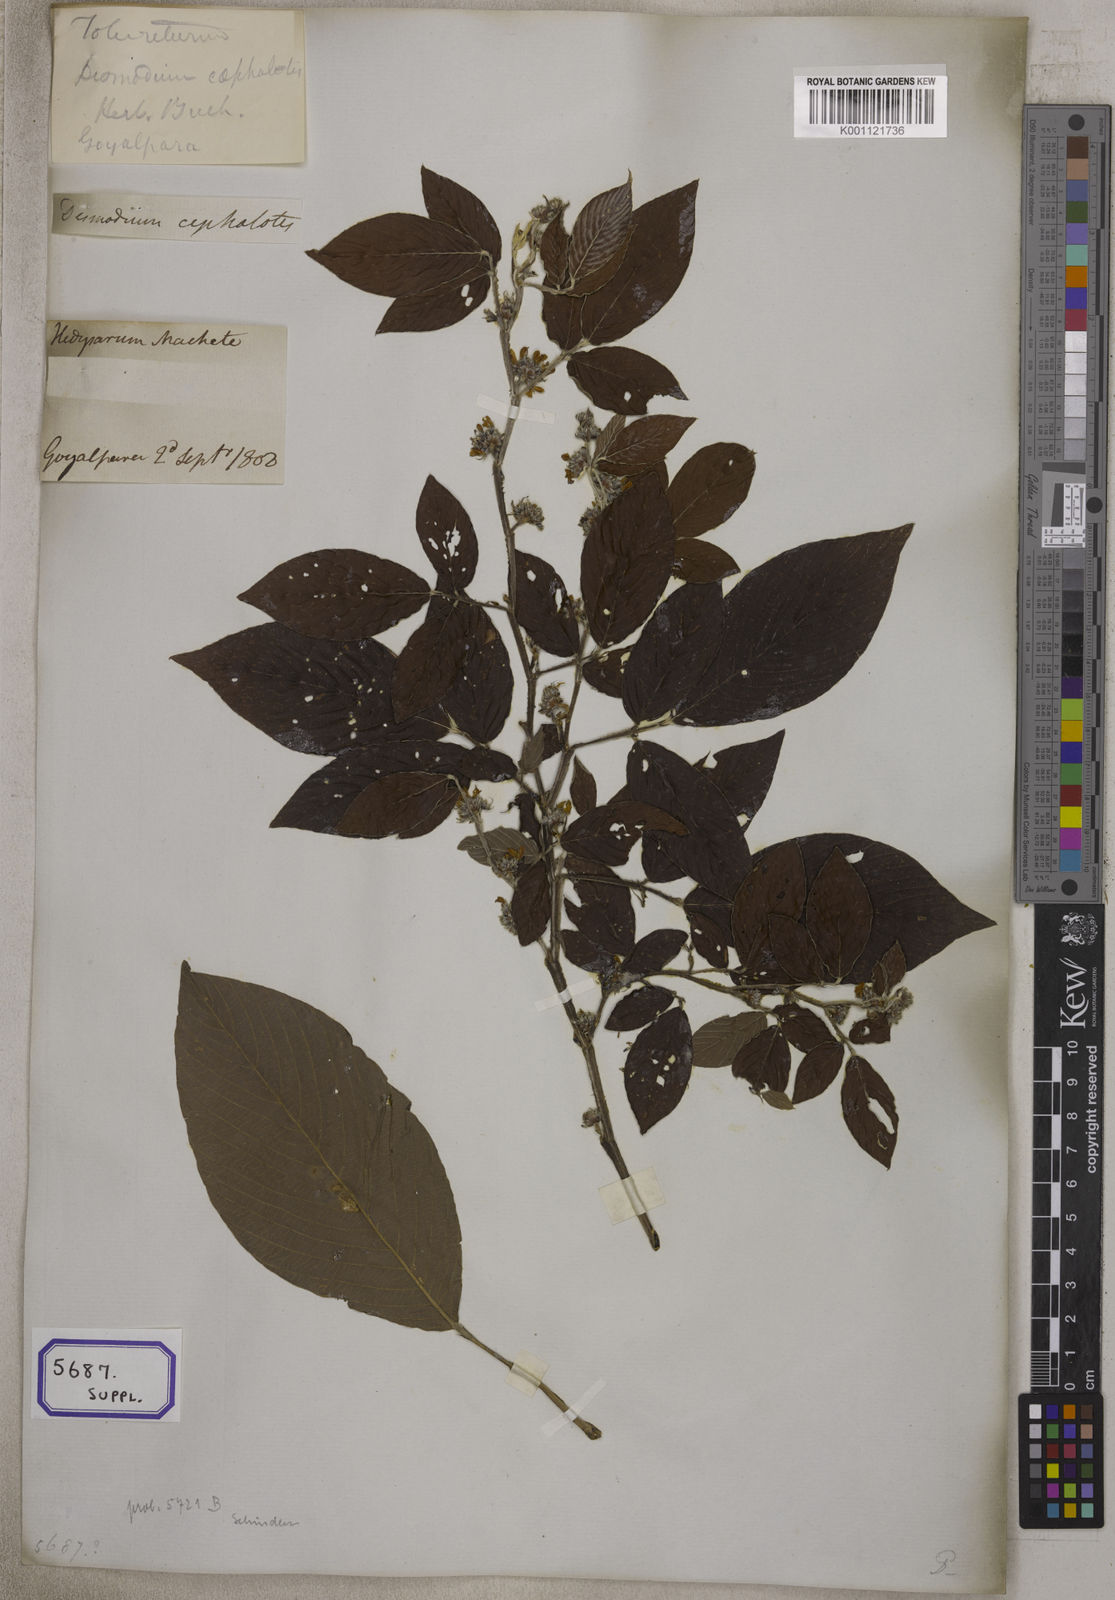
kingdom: Plantae
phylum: Tracheophyta
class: Magnoliopsida
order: Fabales
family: Fabaceae
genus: Desmodium
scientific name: Desmodium
